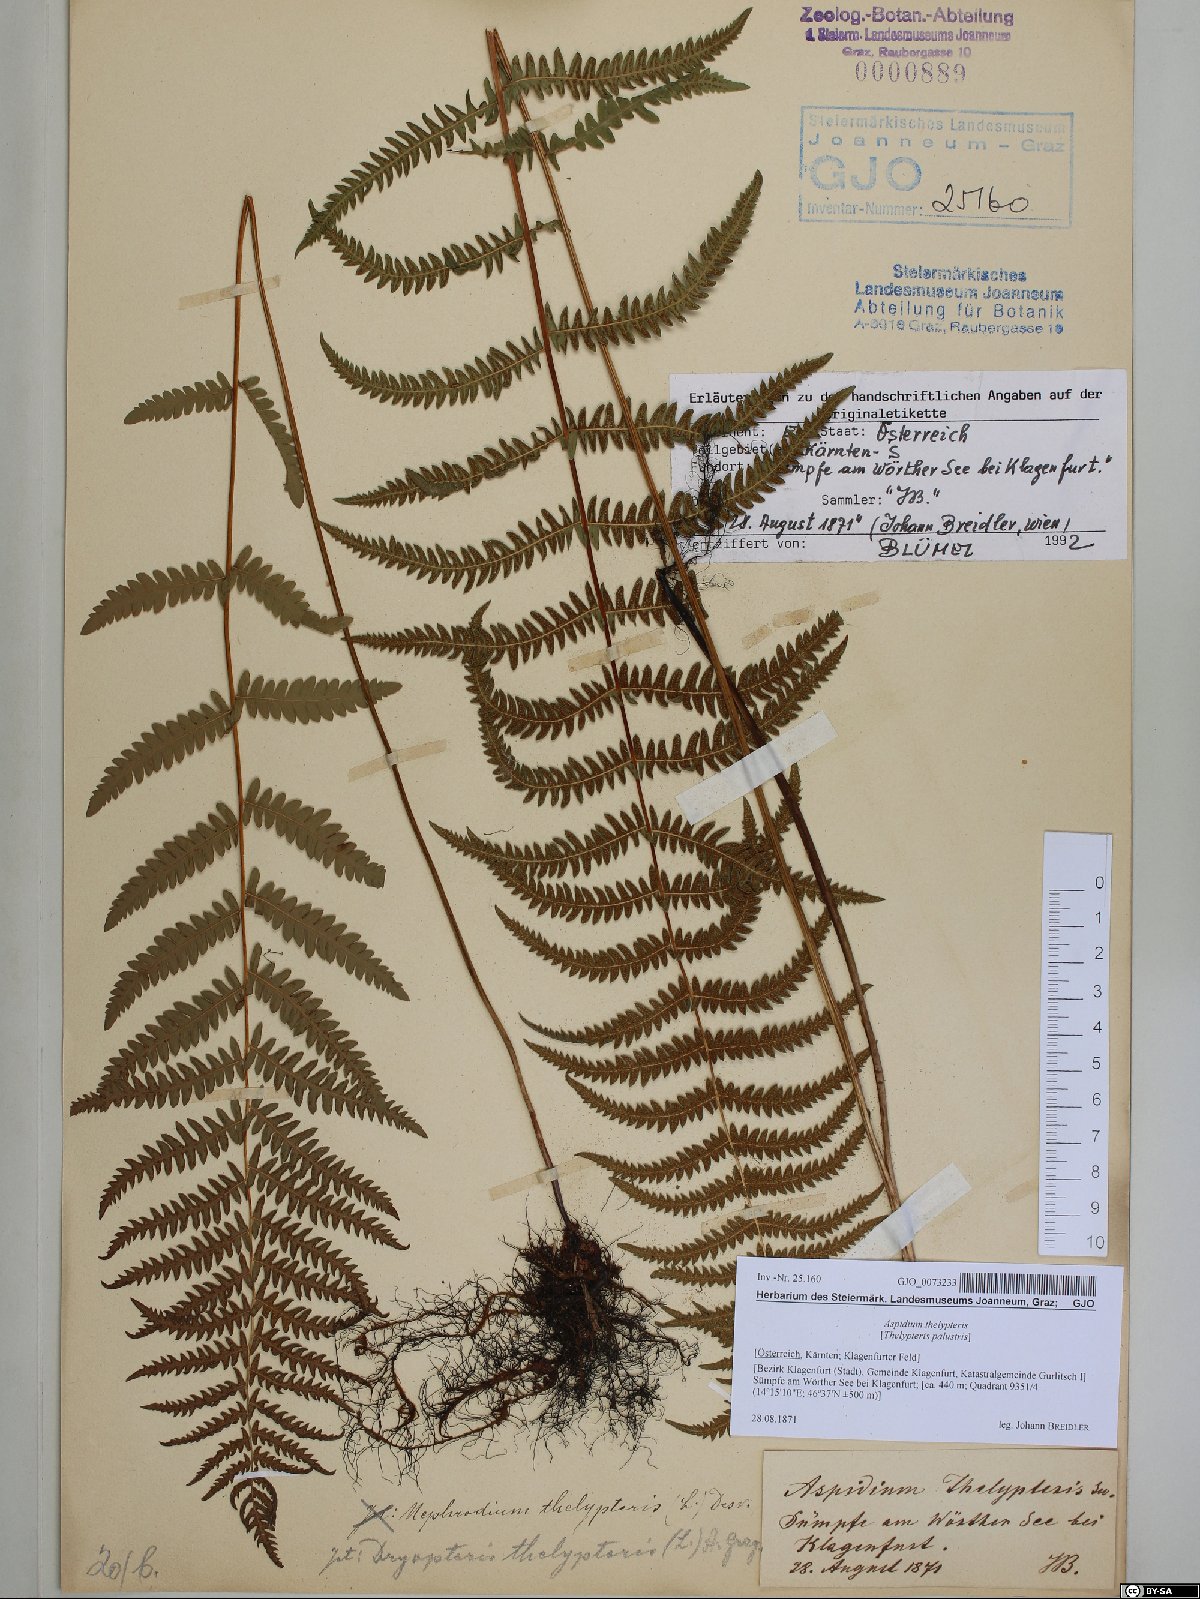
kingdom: Plantae
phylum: Tracheophyta
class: Polypodiopsida
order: Polypodiales
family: Thelypteridaceae
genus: Thelypteris
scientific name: Thelypteris palustris
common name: Marsh fern
